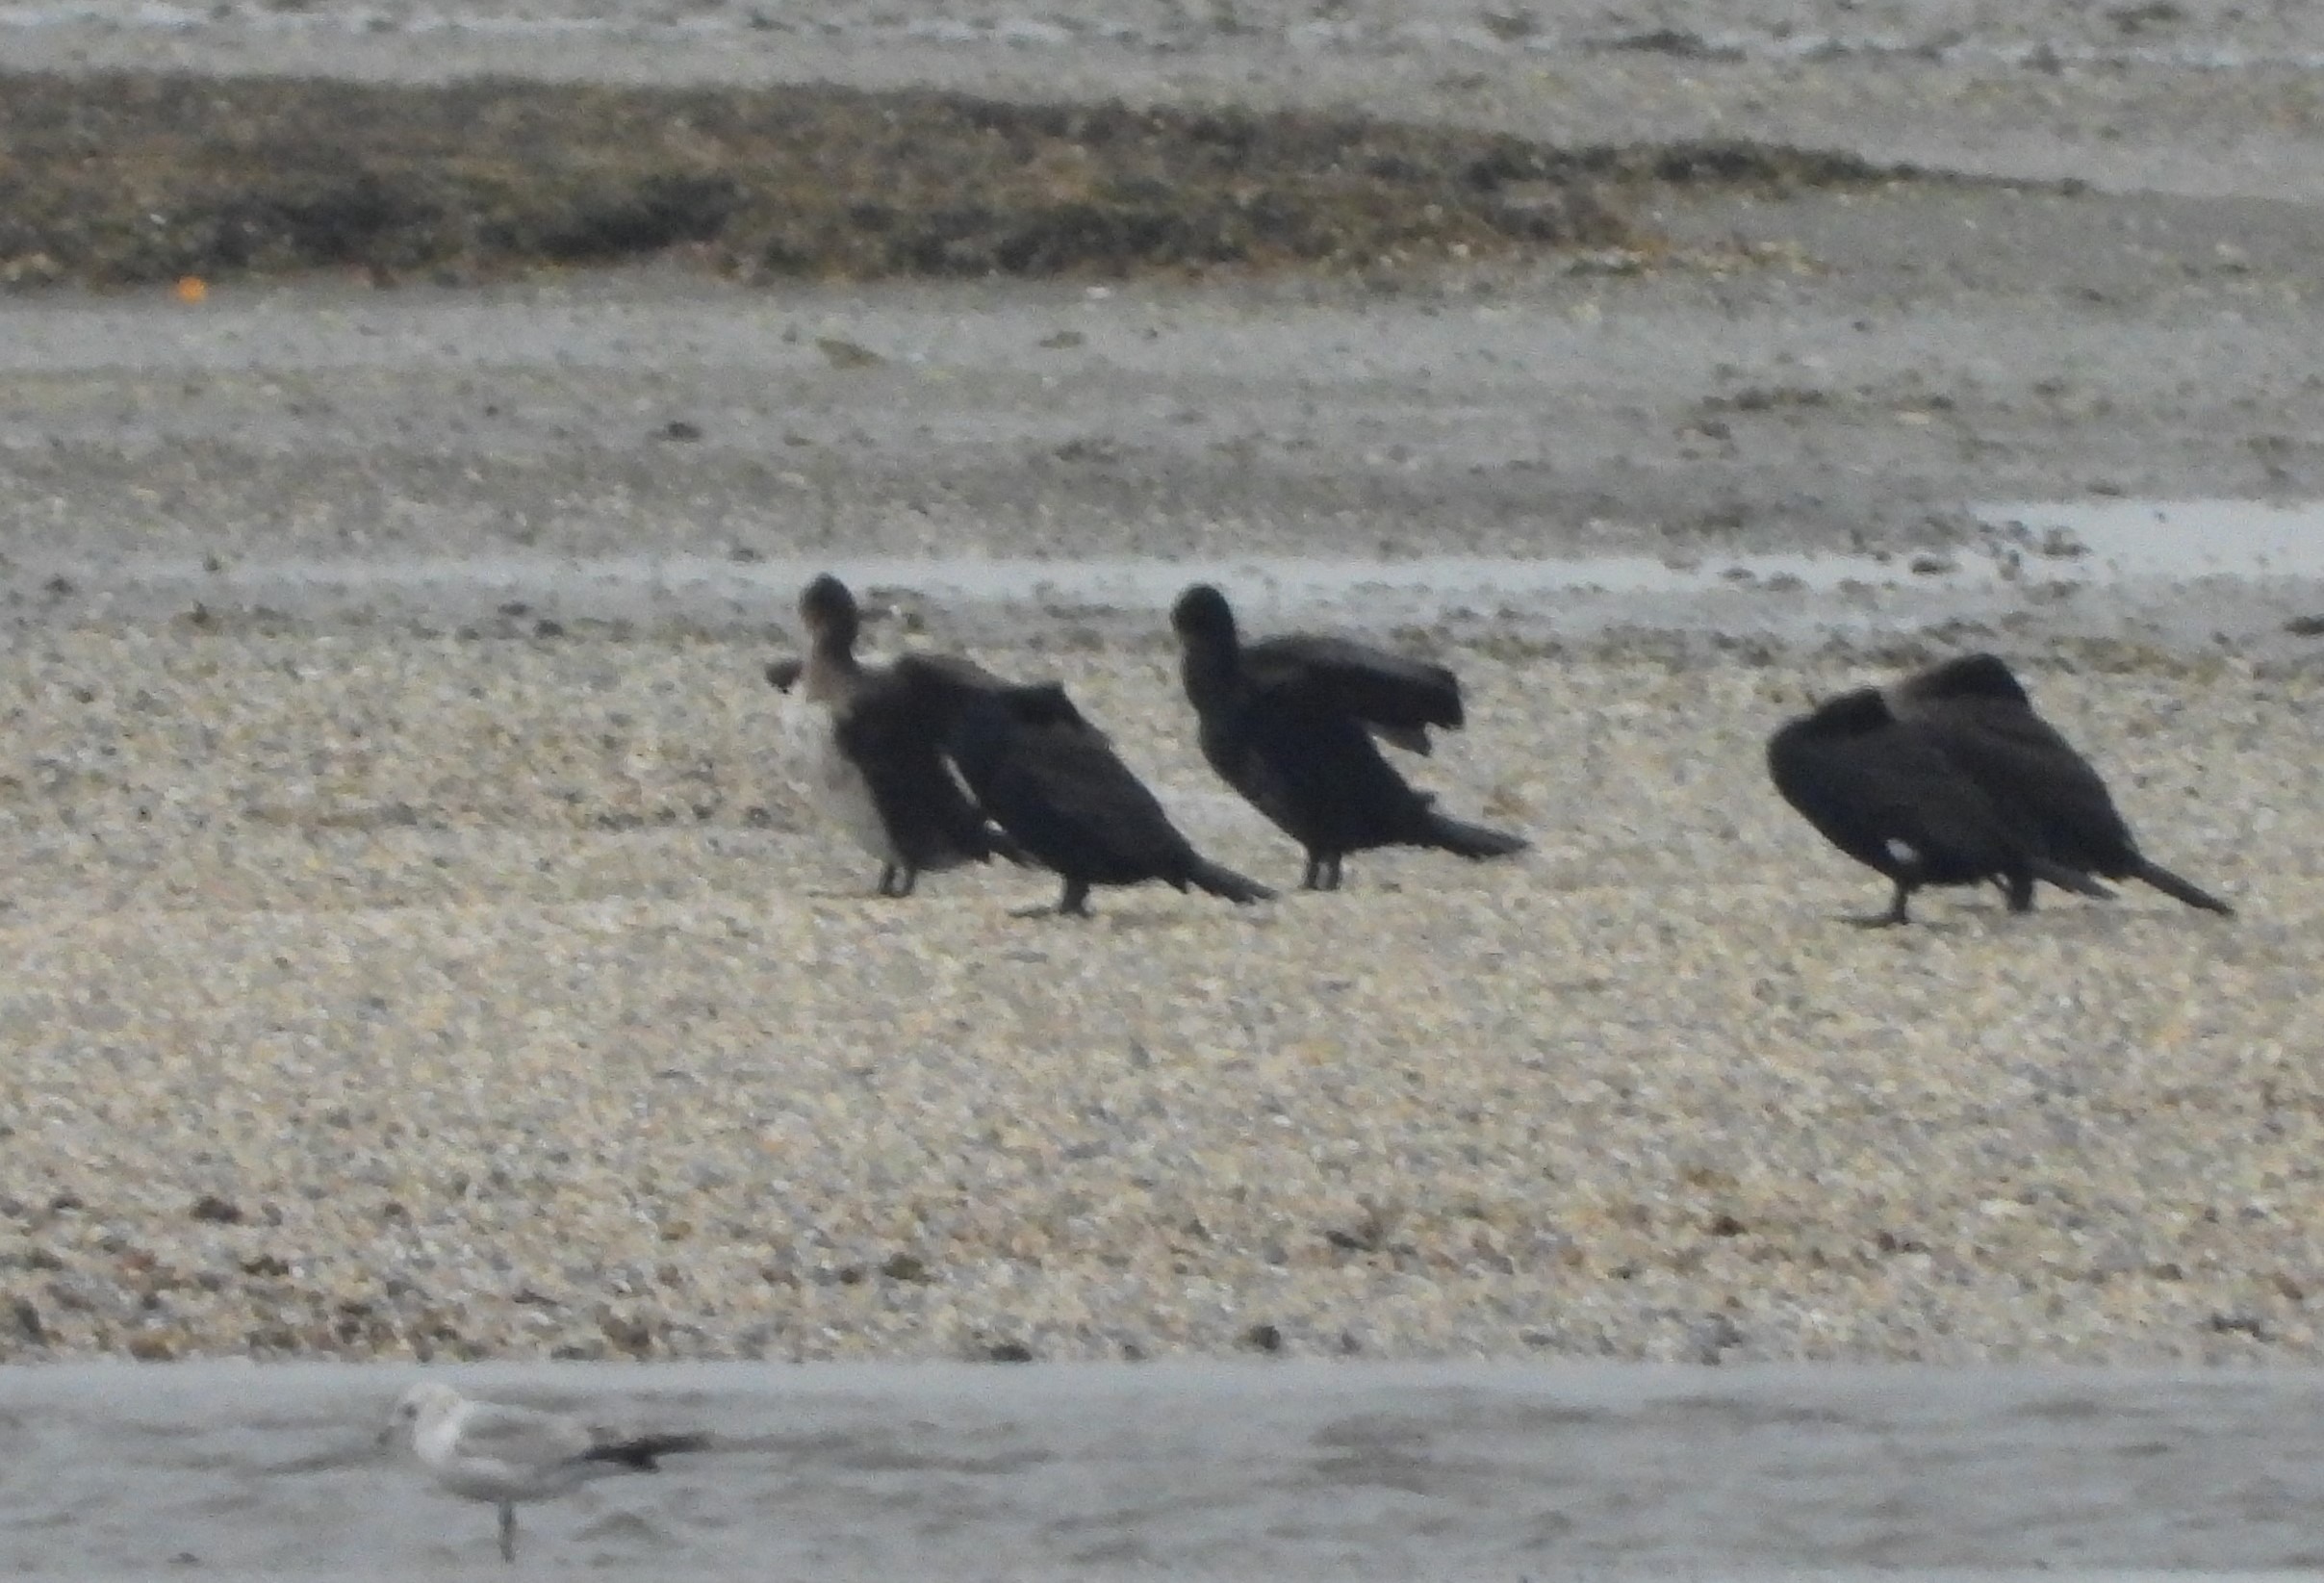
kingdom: Animalia
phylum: Chordata
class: Aves
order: Suliformes
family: Phalacrocoracidae
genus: Phalacrocorax
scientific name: Phalacrocorax carbo
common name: Skarv
